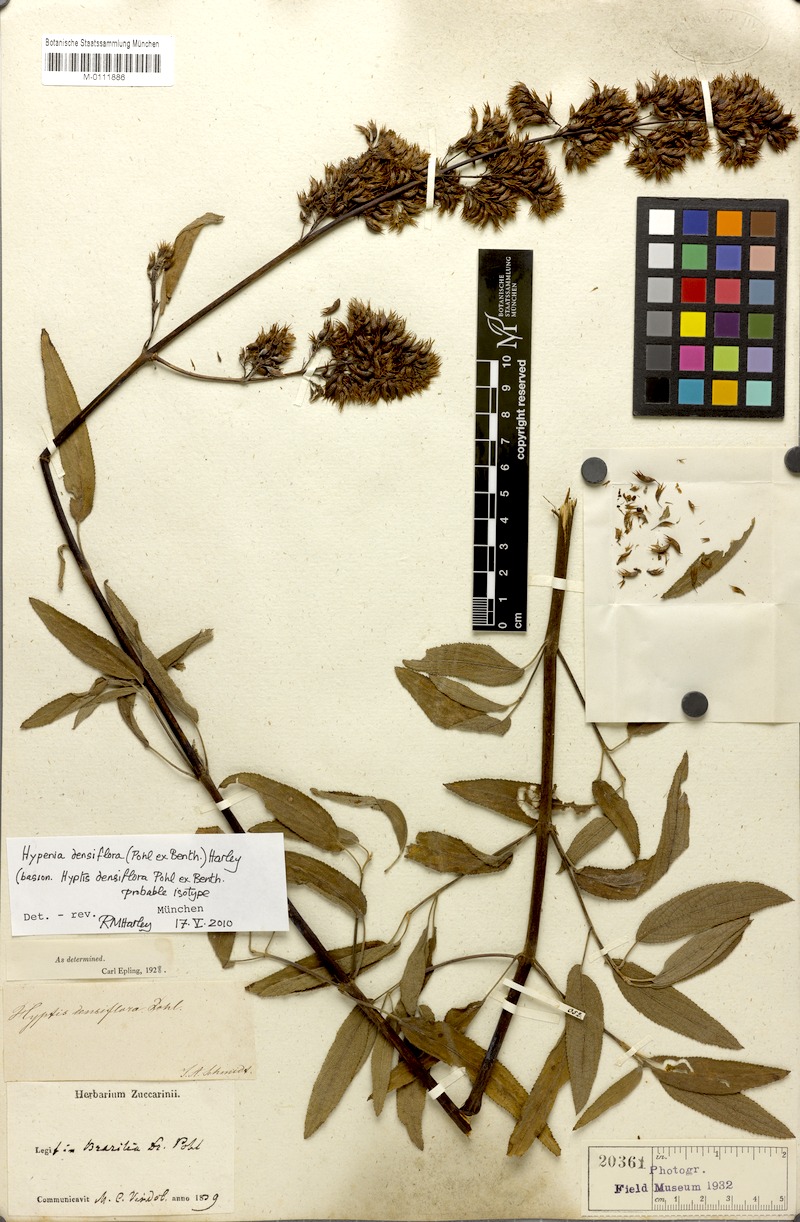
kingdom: Plantae
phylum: Tracheophyta
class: Magnoliopsida
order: Lamiales
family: Lamiaceae
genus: Hypenia
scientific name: Hypenia densiflora
